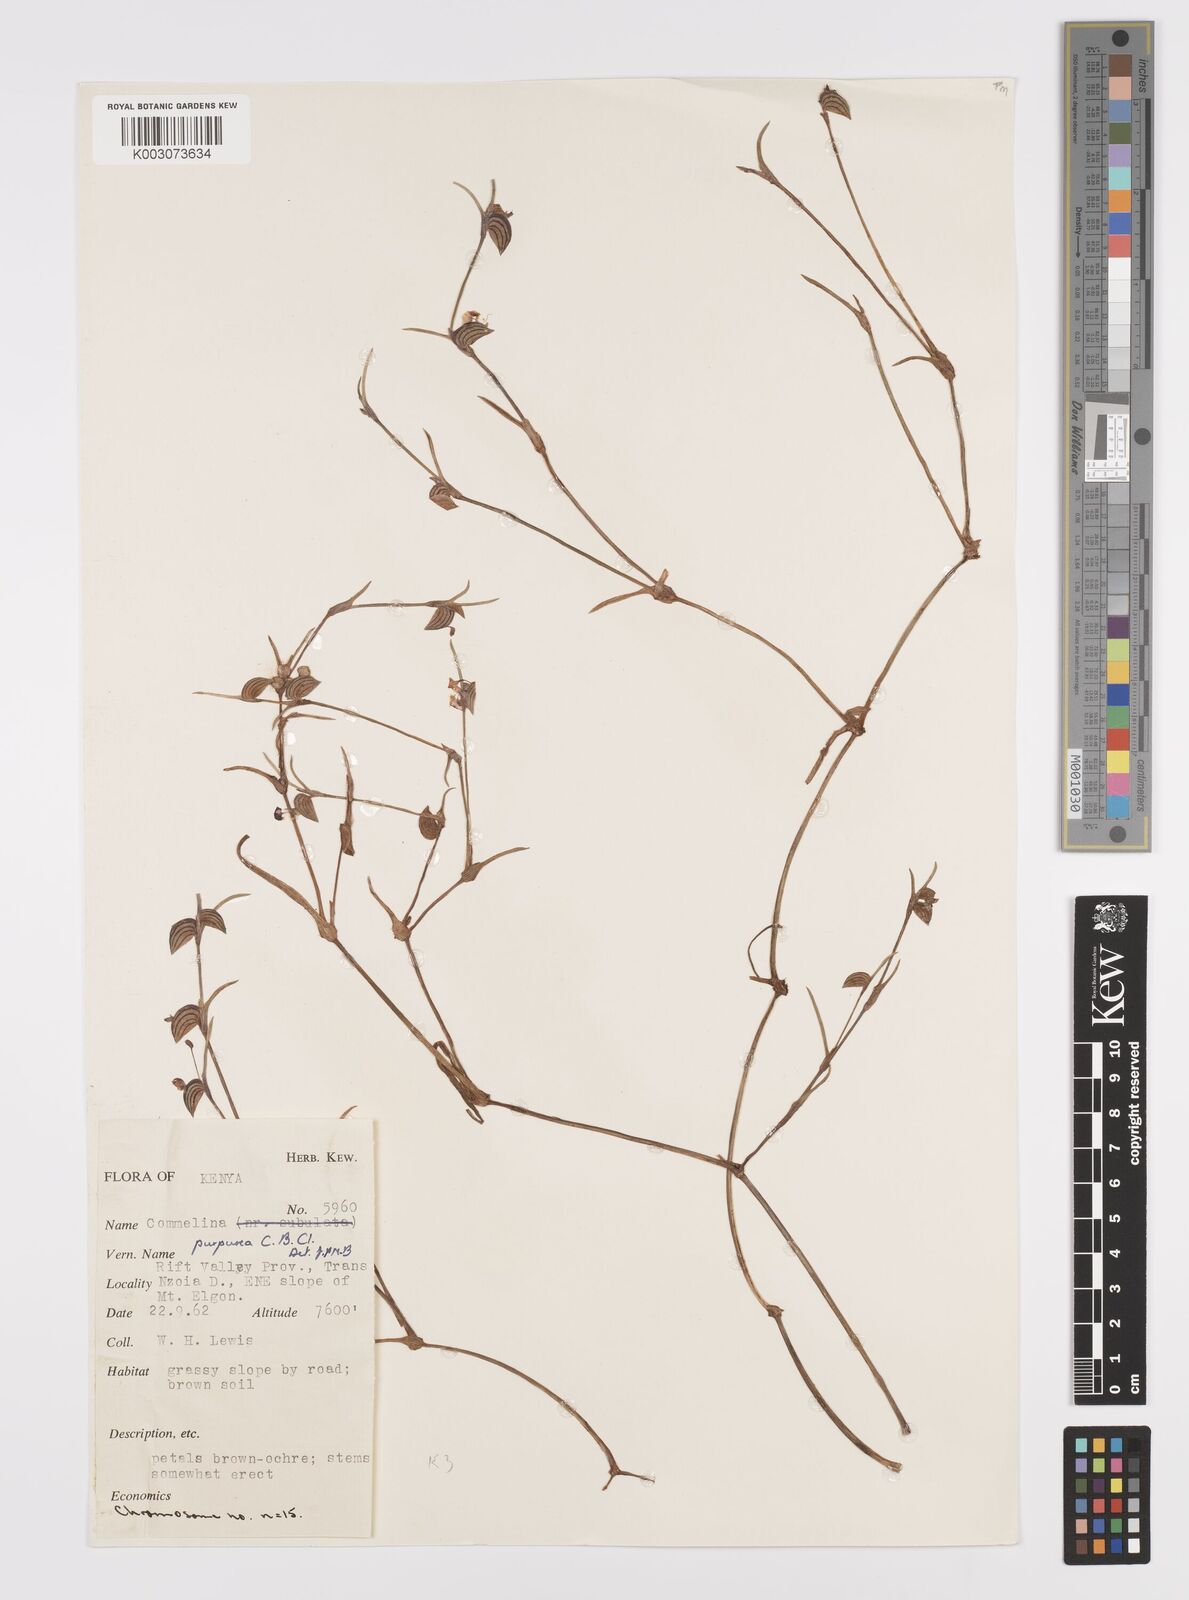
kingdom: Plantae
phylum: Tracheophyta
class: Liliopsida
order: Commelinales
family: Commelinaceae
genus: Commelina
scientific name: Commelina purpurea
